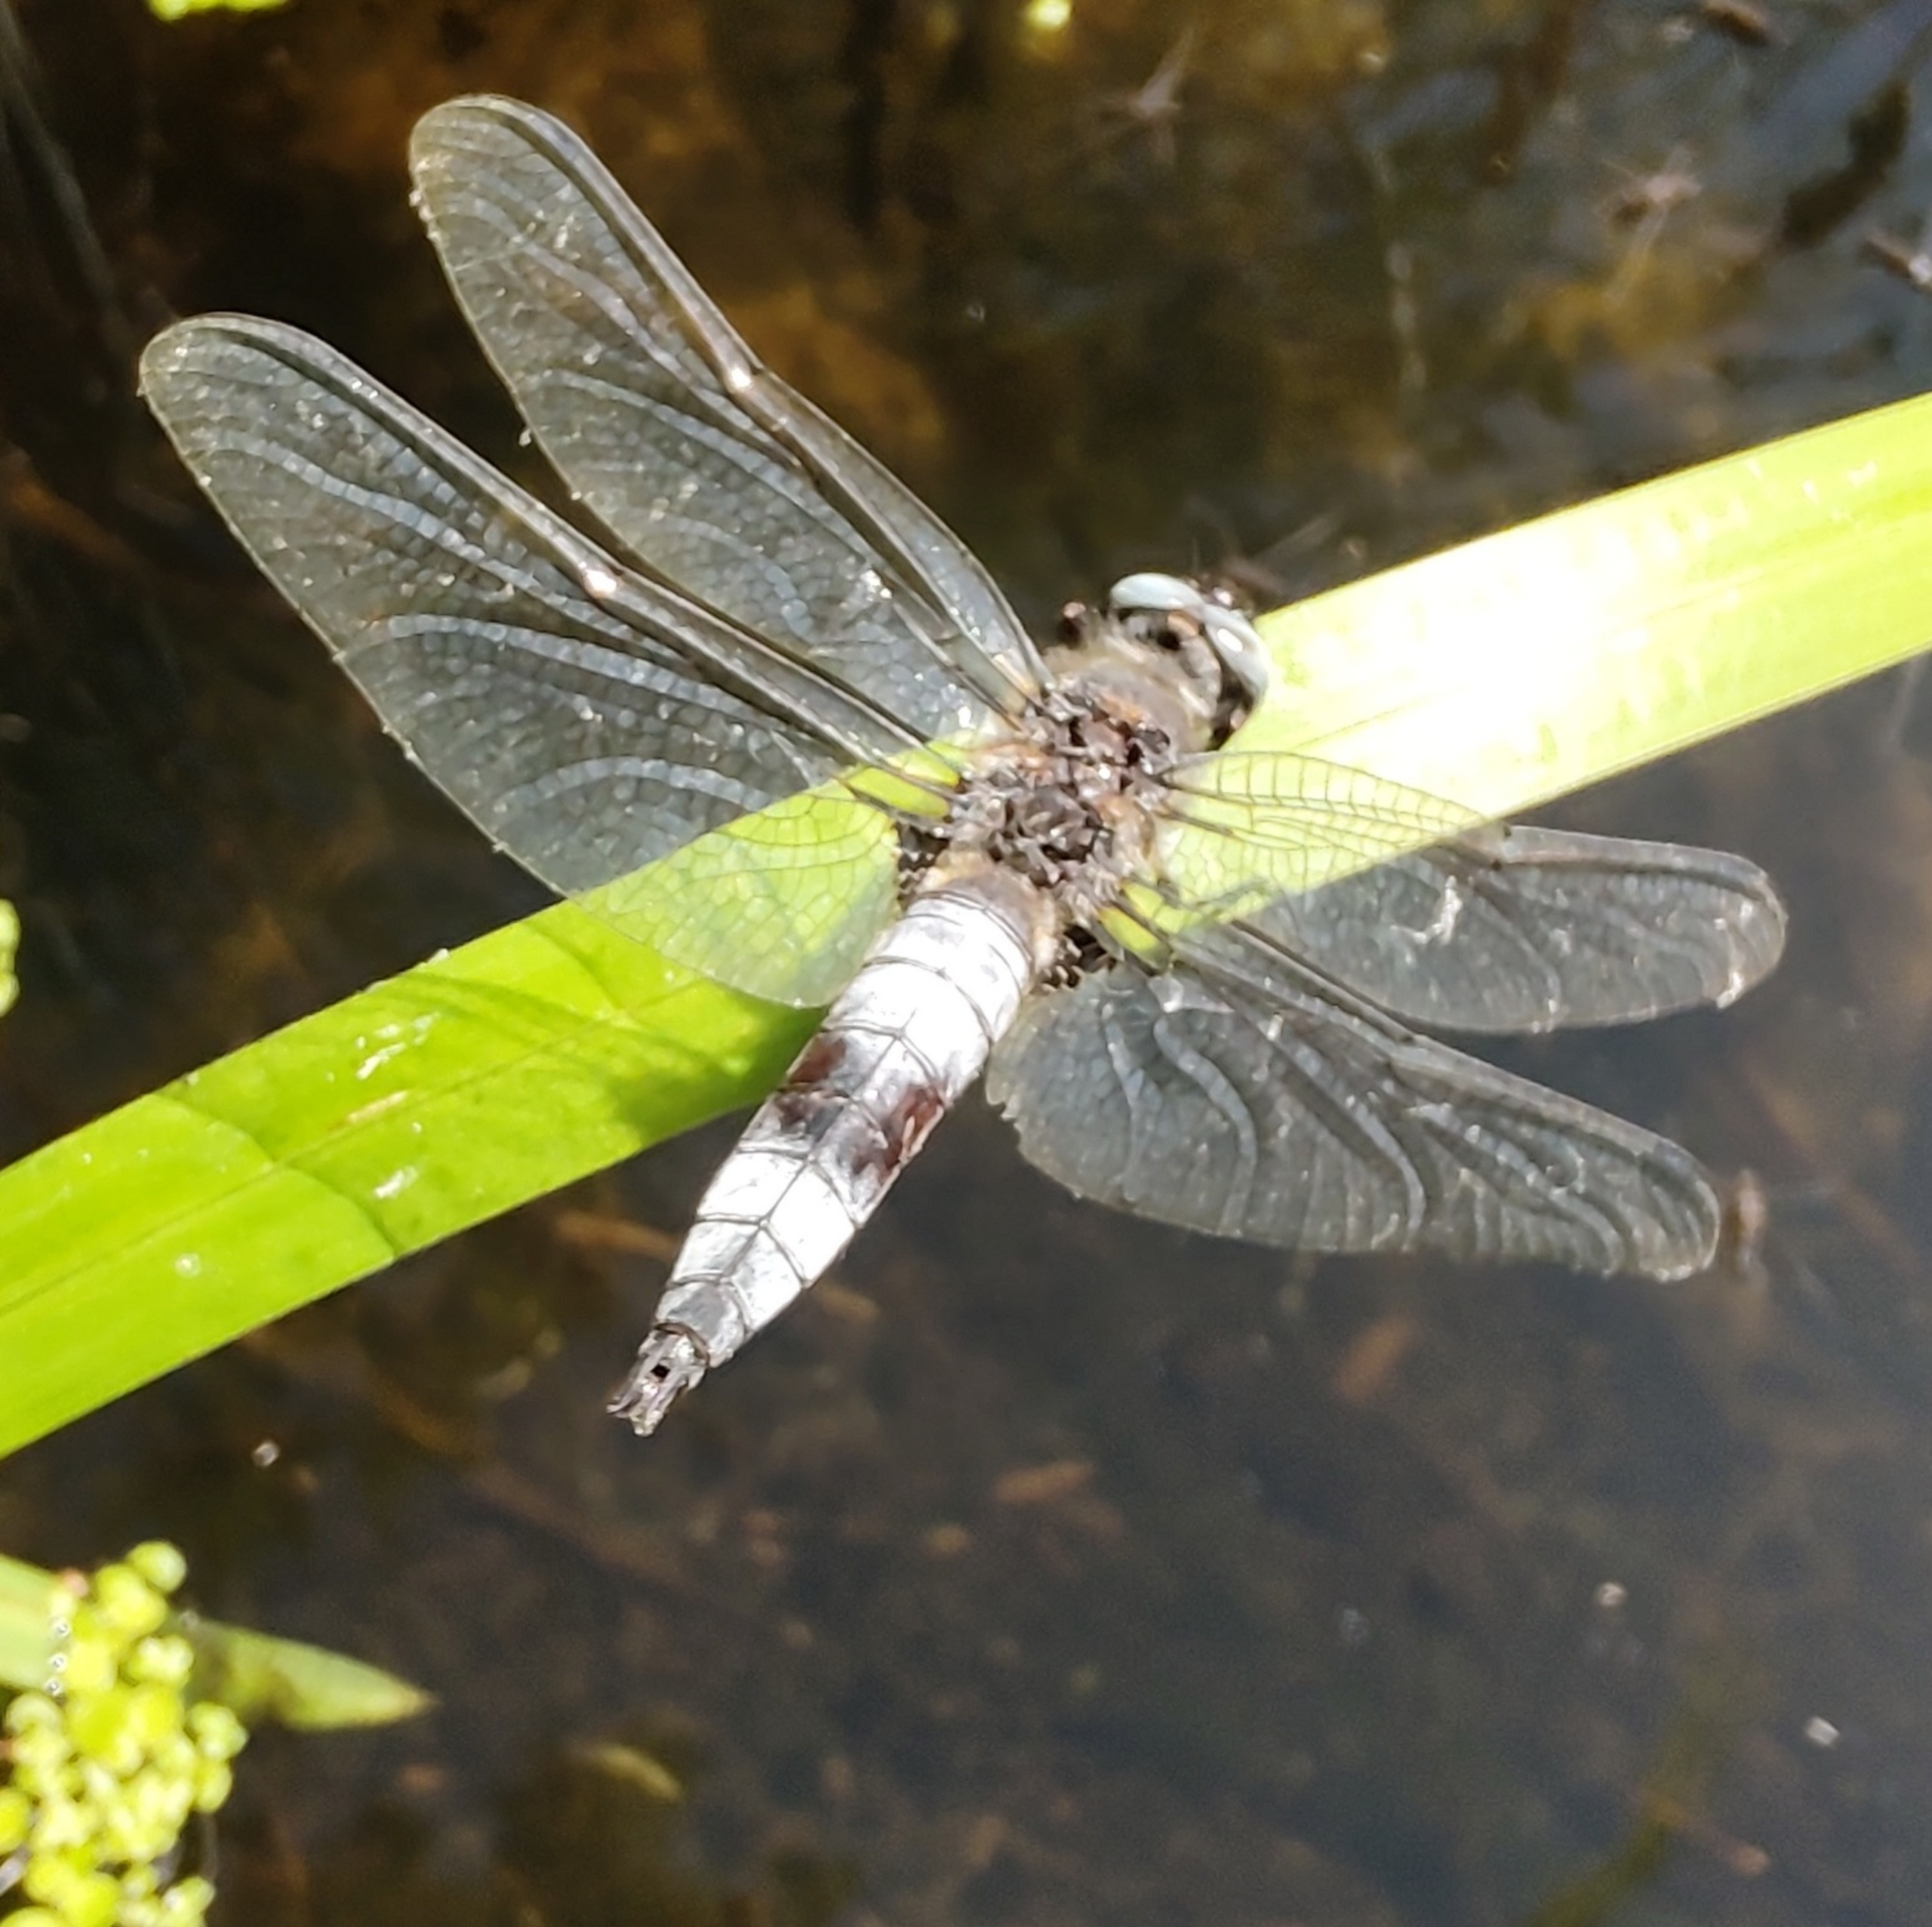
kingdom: Animalia
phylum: Arthropoda
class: Insecta
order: Odonata
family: Libellulidae
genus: Libellula
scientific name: Libellula fulva
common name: Spidsplettet libel
